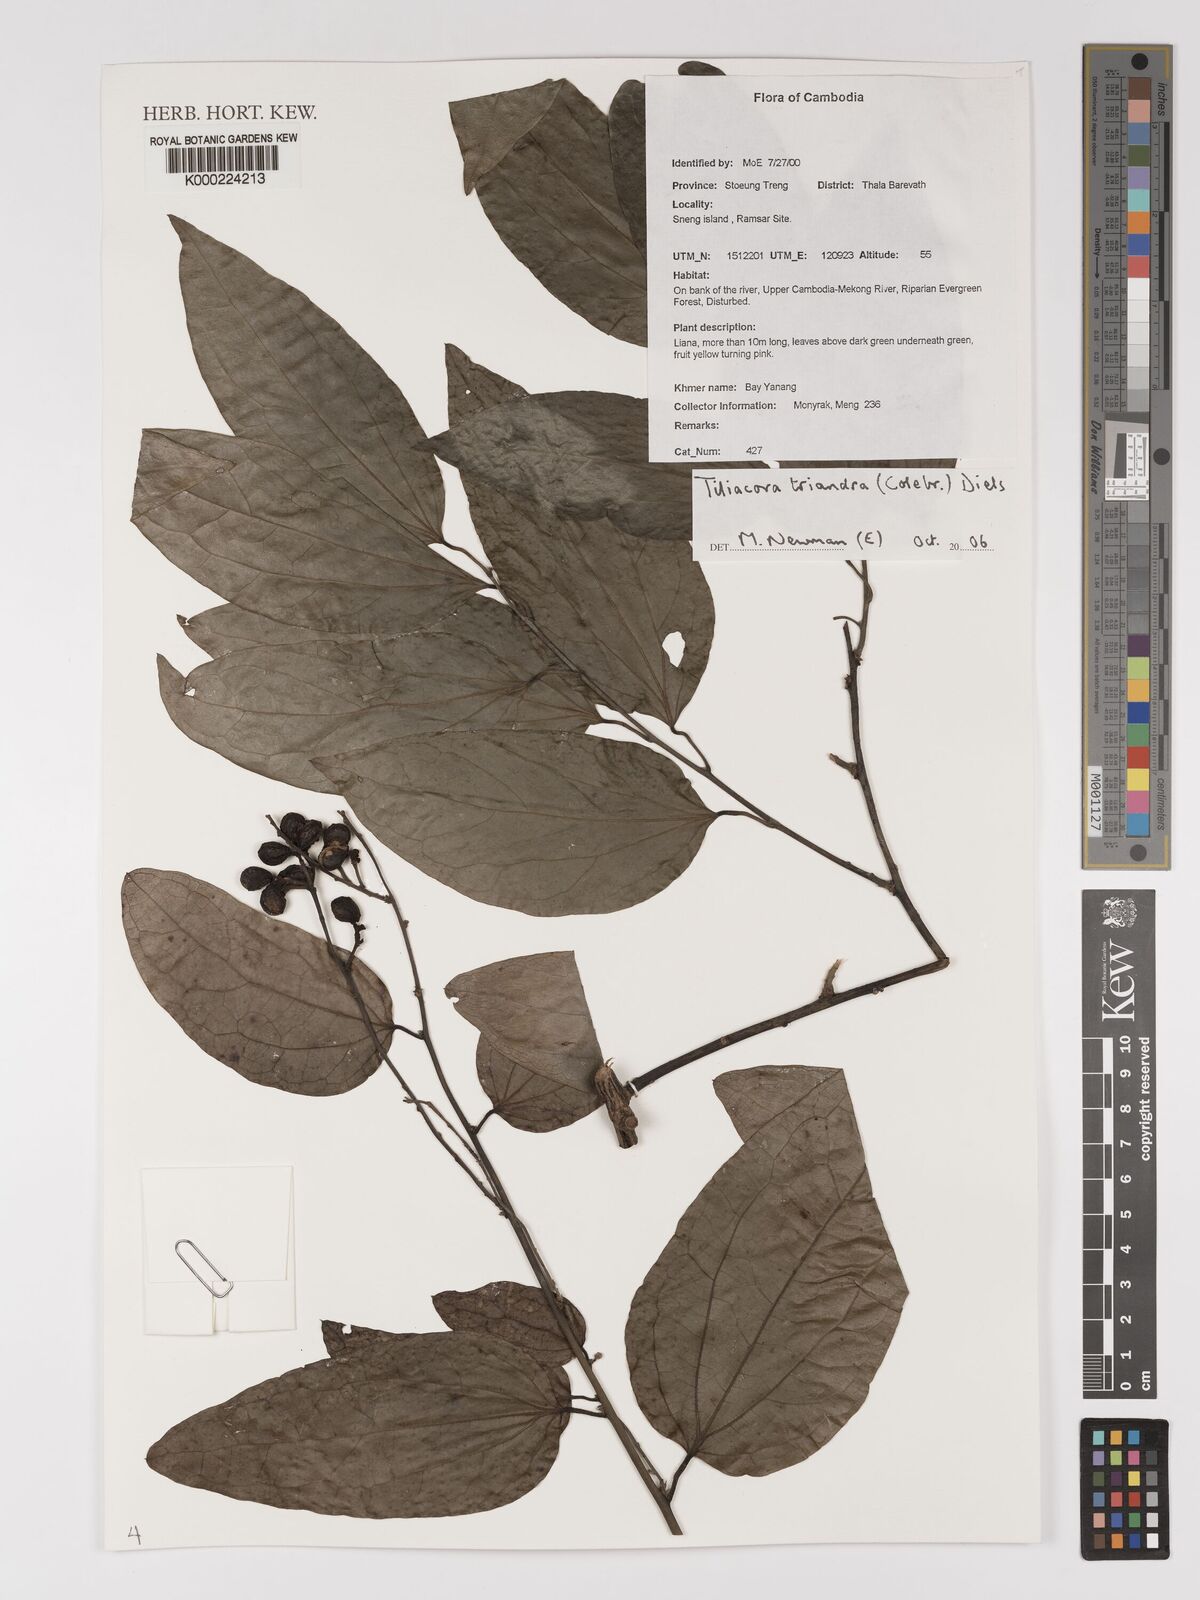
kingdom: Plantae
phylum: Tracheophyta
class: Magnoliopsida
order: Ranunculales
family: Menispermaceae
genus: Tiliacora
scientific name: Tiliacora triandra
